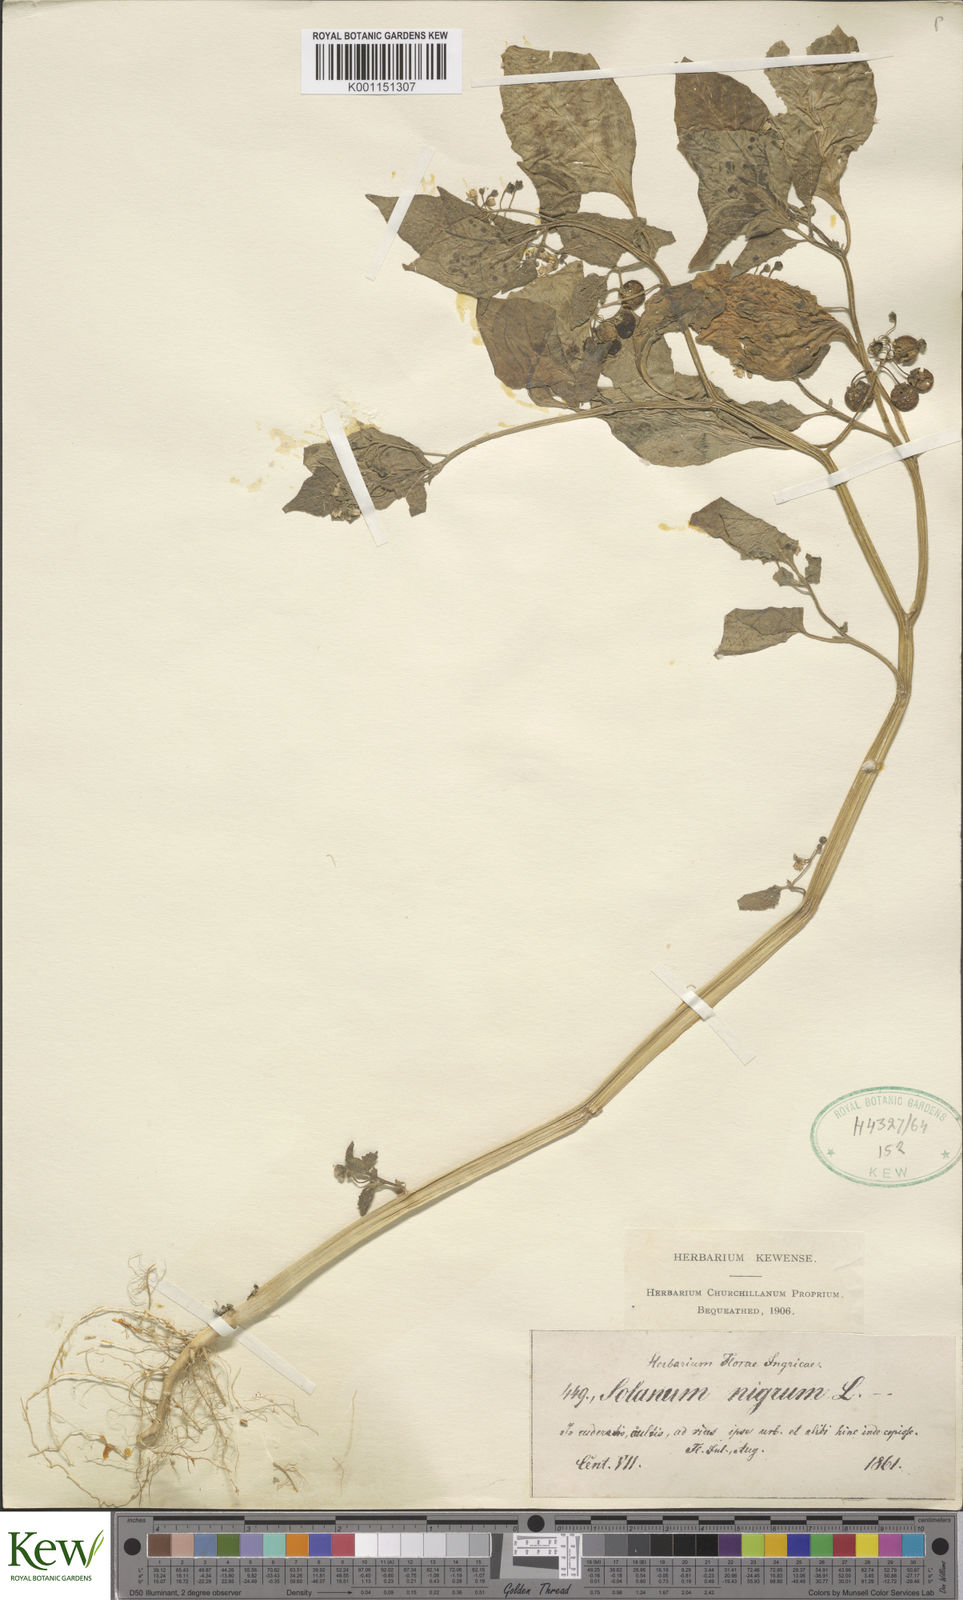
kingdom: Plantae
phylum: Tracheophyta
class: Magnoliopsida
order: Solanales
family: Solanaceae
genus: Solanum
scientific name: Solanum nigrum
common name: Black nightshade
